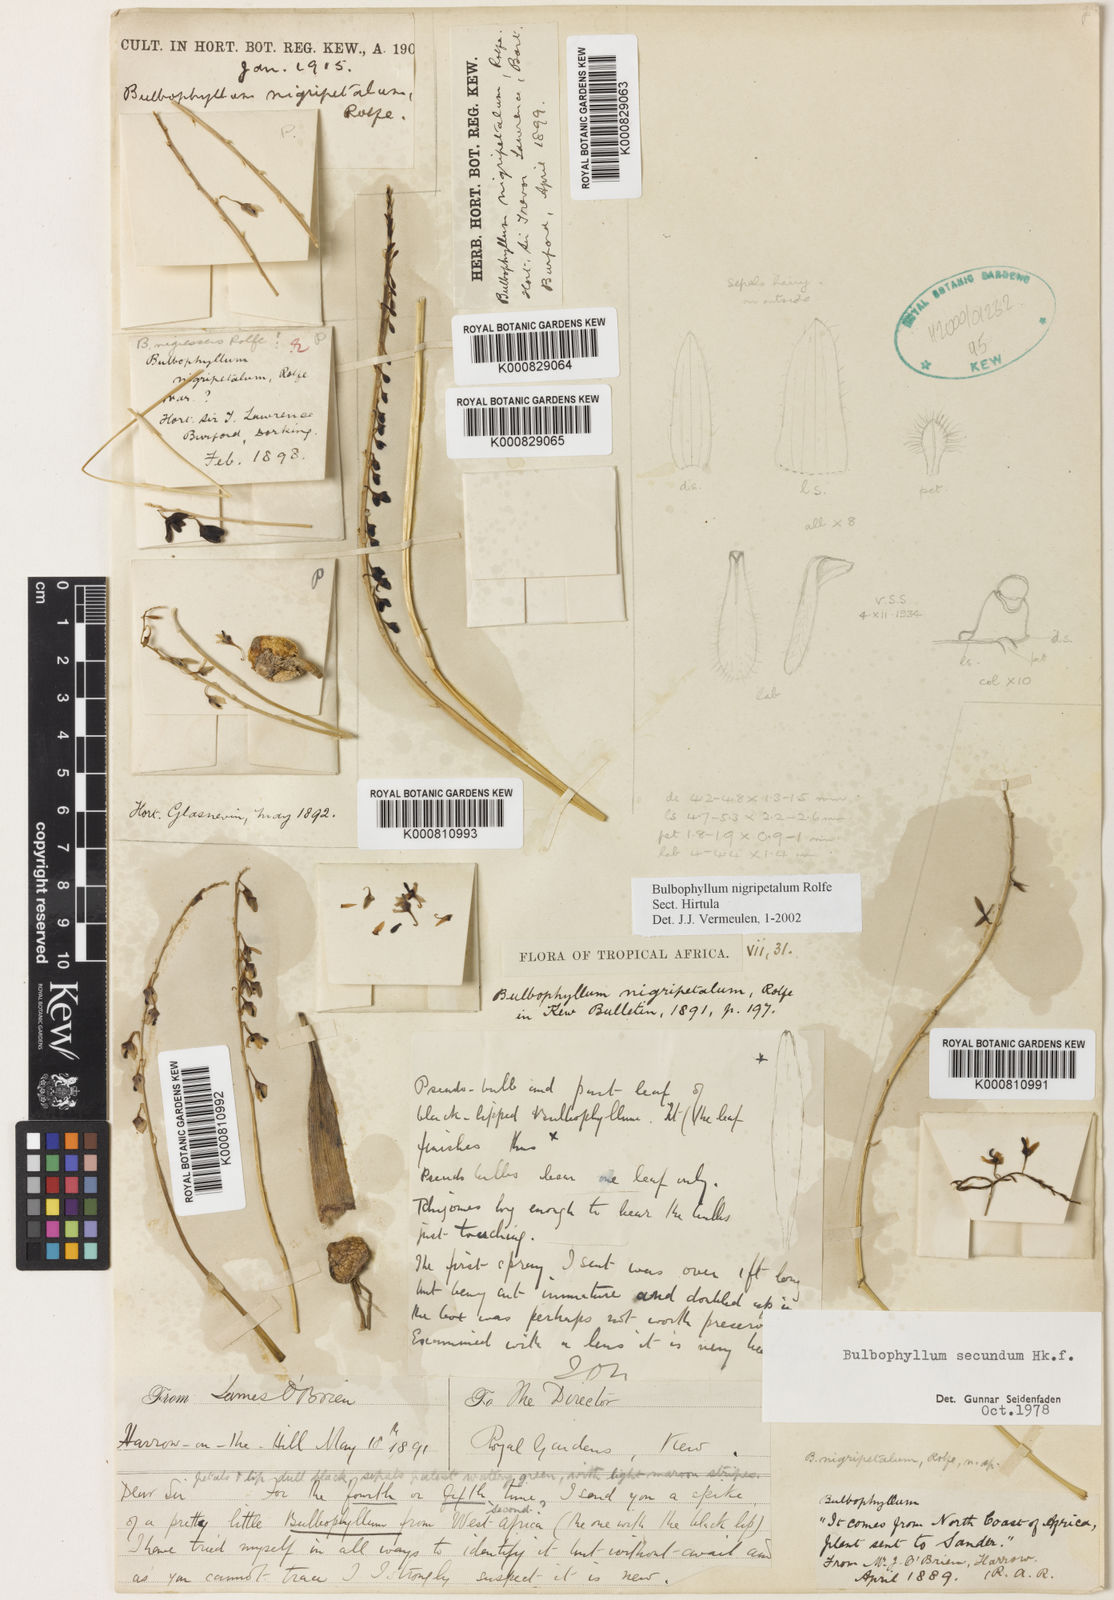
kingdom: Plantae
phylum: Tracheophyta
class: Liliopsida
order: Asparagales
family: Orchidaceae
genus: Bulbophyllum
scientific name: Bulbophyllum secundum
